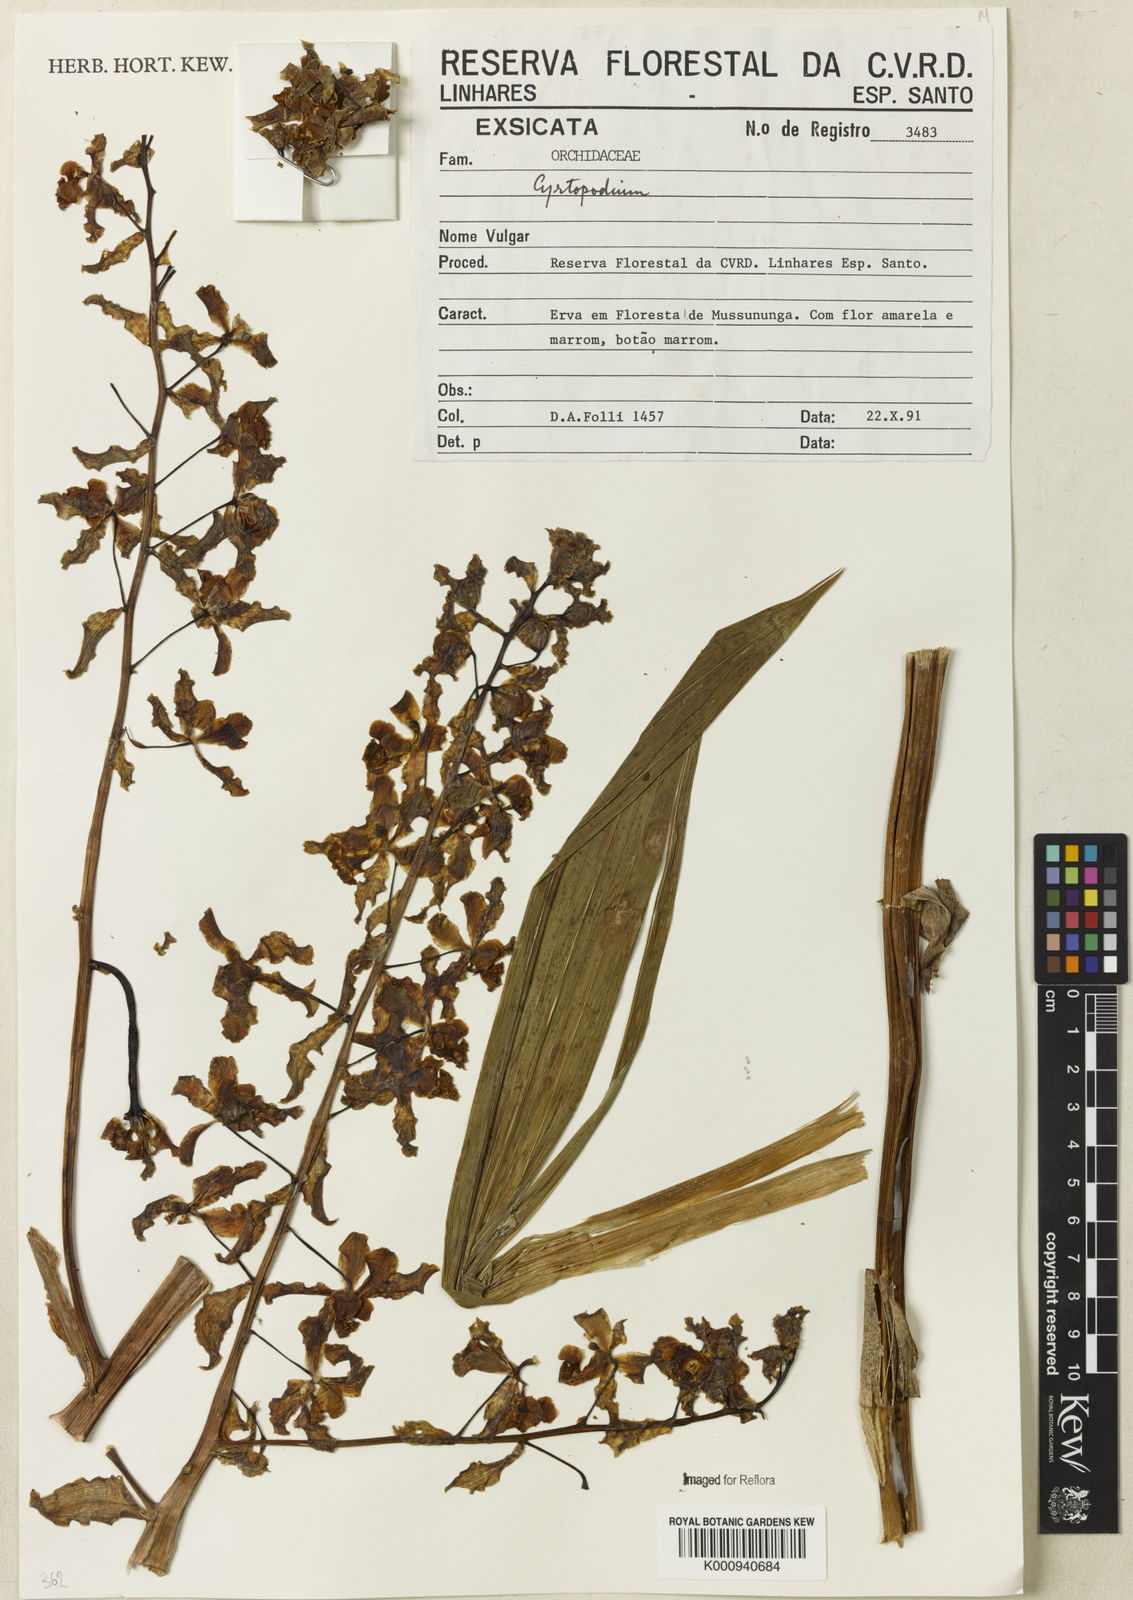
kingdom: Plantae
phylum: Tracheophyta
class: Liliopsida
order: Asparagales
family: Orchidaceae
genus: Cyrtopodium
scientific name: Cyrtopodium
